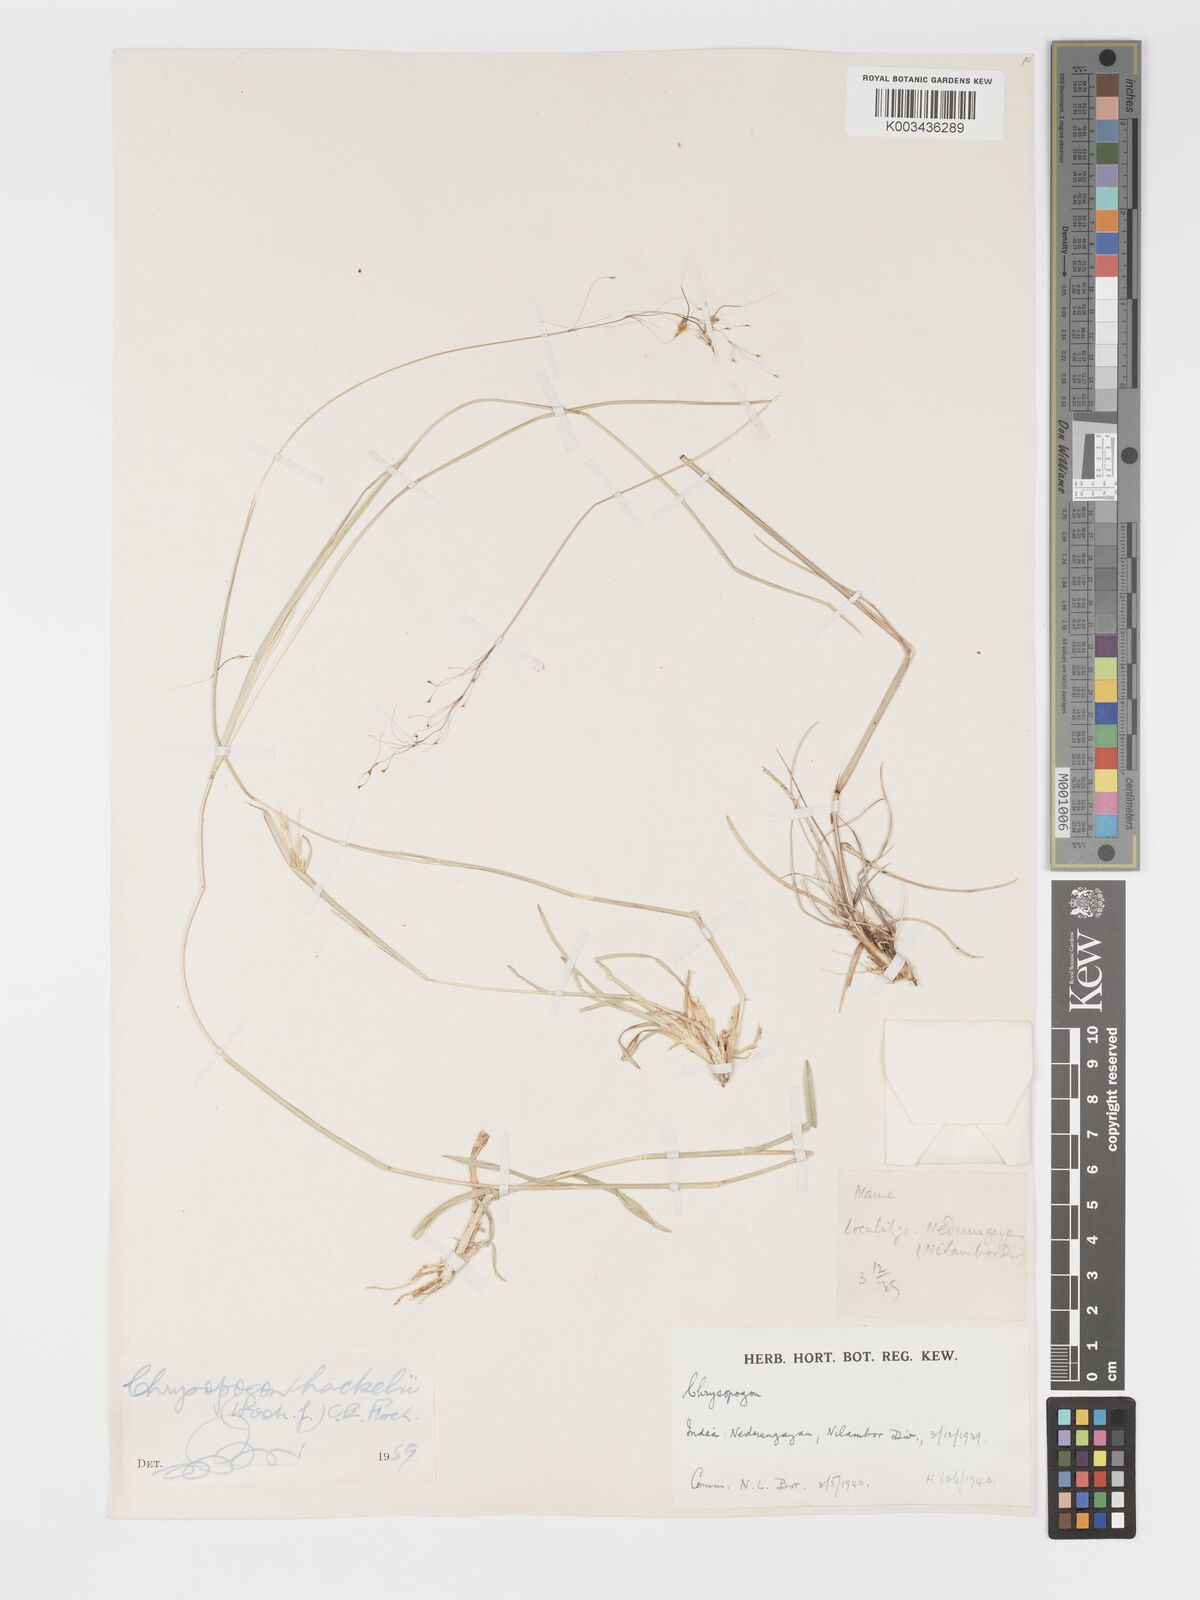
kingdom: Plantae
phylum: Tracheophyta
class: Liliopsida
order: Poales
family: Poaceae
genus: Chrysopogon
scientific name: Chrysopogon fulvus
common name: Red false beardgrass
